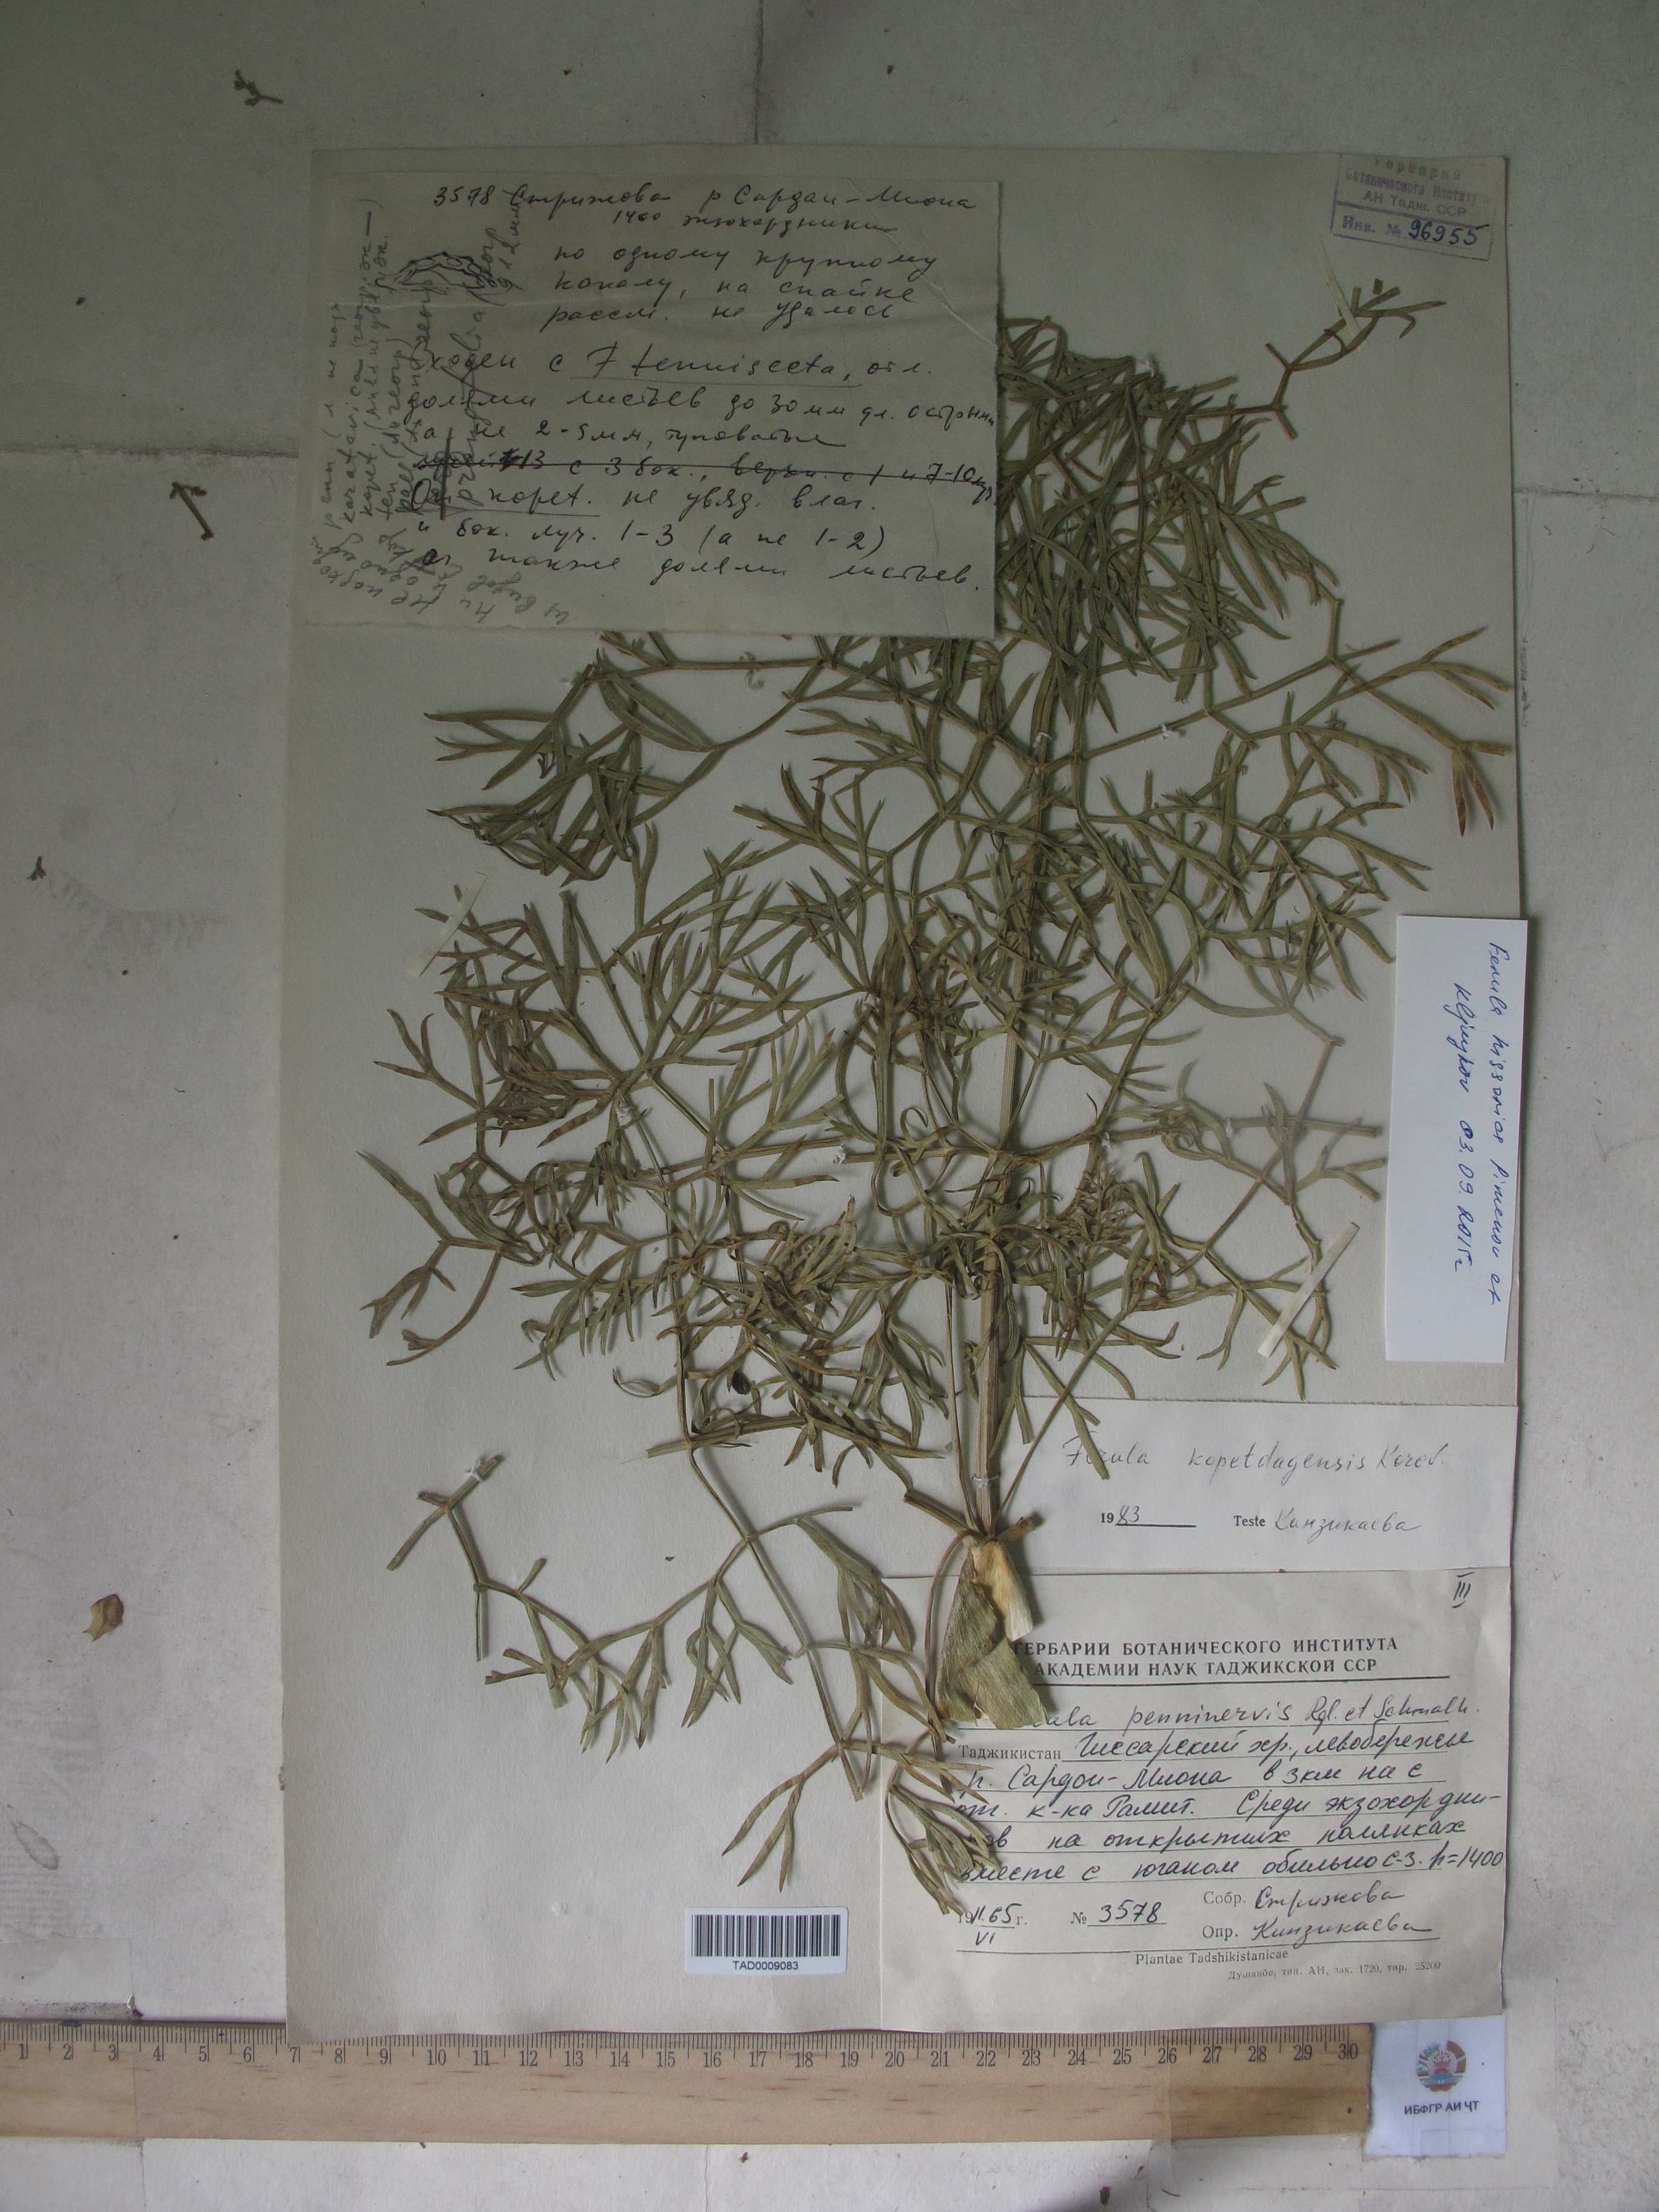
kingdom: Plantae
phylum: Tracheophyta
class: Magnoliopsida
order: Apiales
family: Apiaceae
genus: Ferula
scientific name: Ferula hissarica
